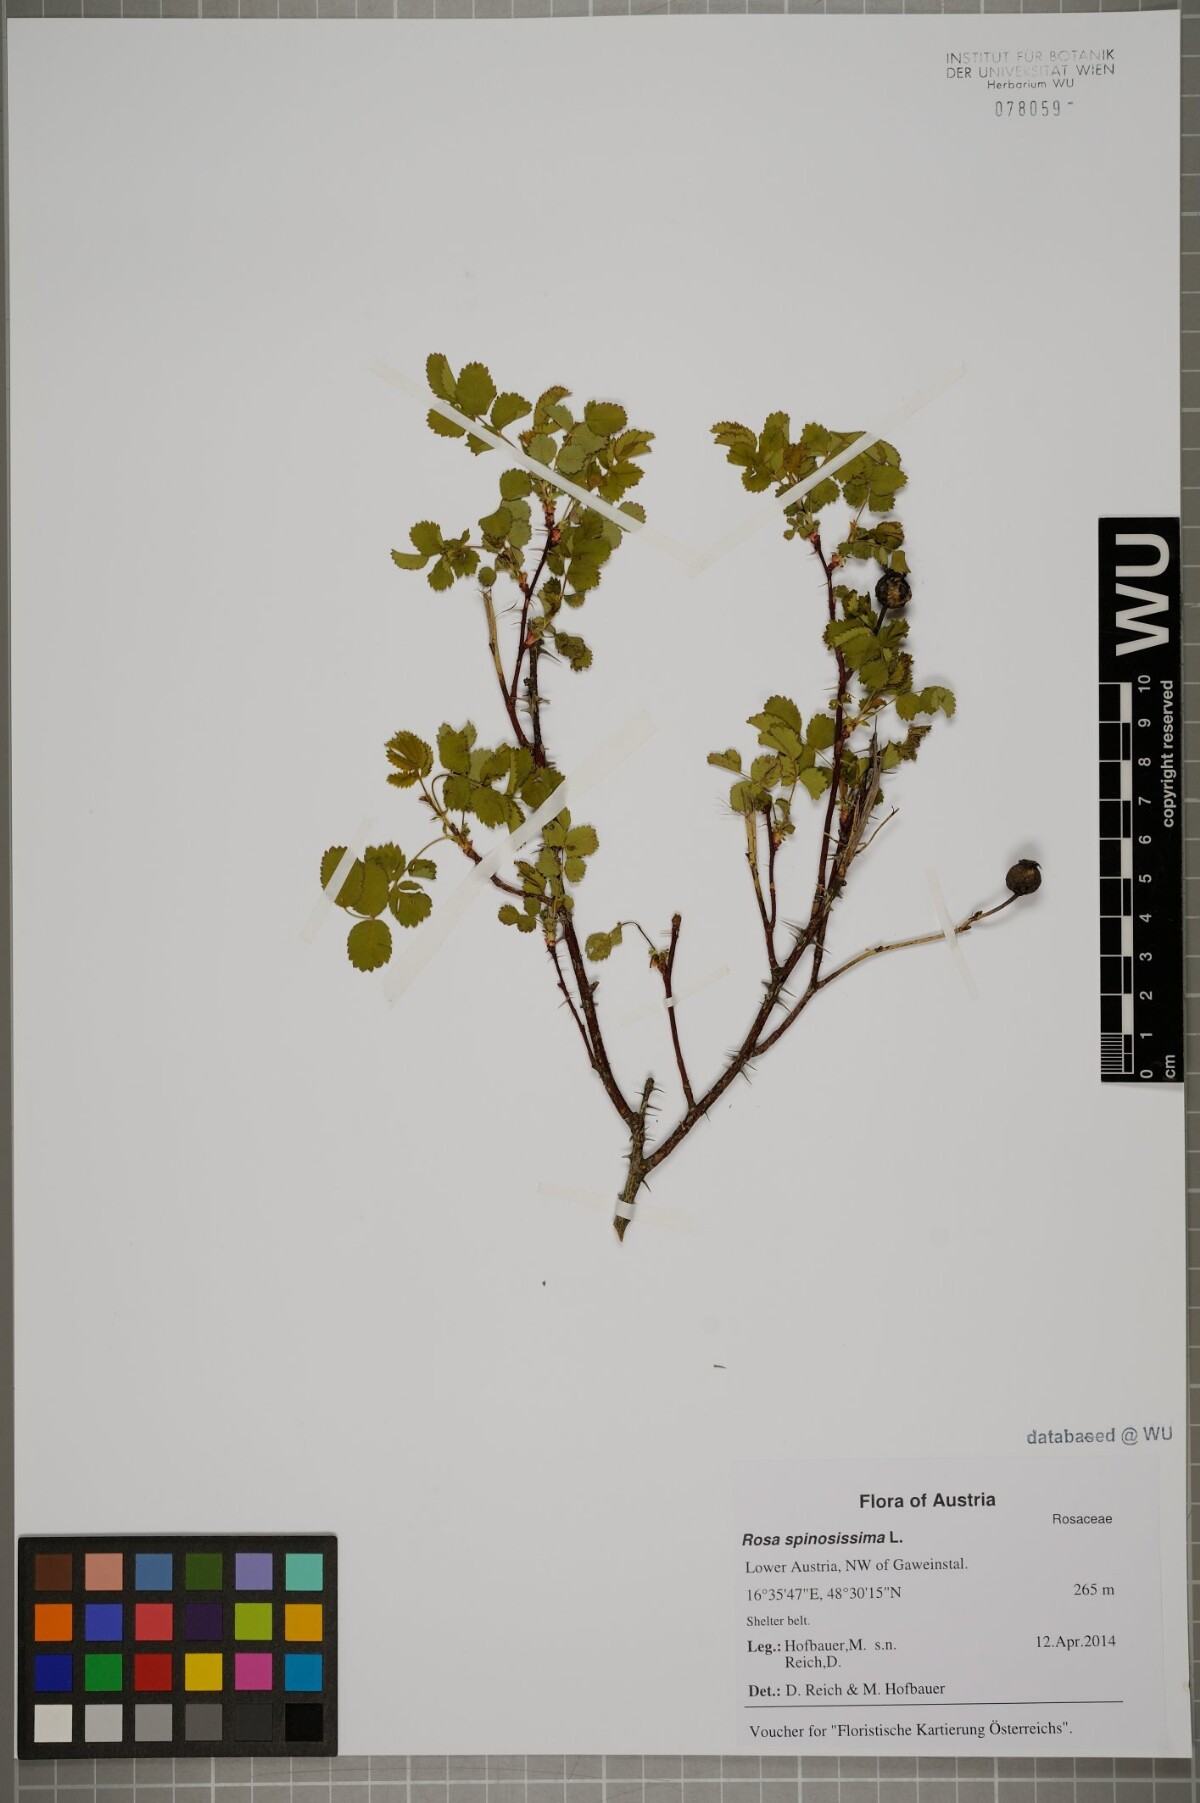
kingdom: Plantae
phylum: Tracheophyta
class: Magnoliopsida
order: Rosales
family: Rosaceae
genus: Rosa
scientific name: Rosa spinosissima
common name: Burnet rose
